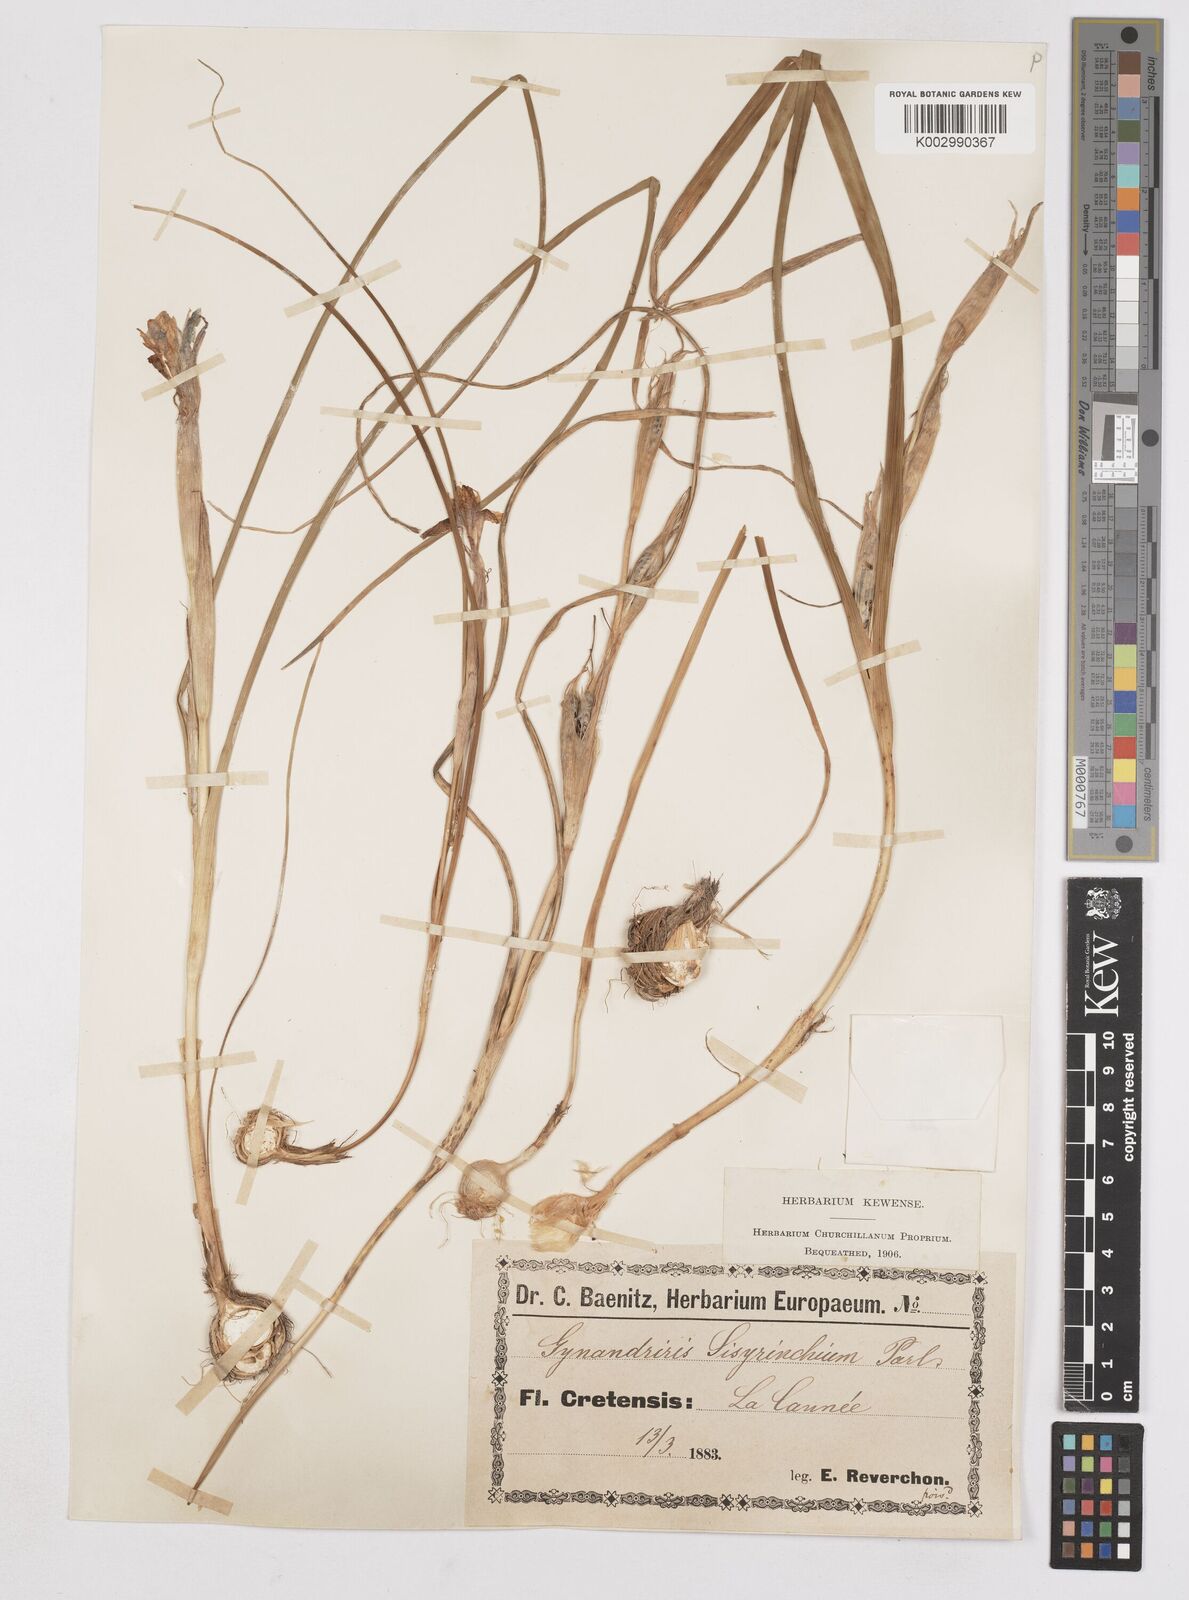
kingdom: Plantae
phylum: Tracheophyta
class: Liliopsida
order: Asparagales
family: Iridaceae
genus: Moraea
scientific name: Moraea sisyrinchium
